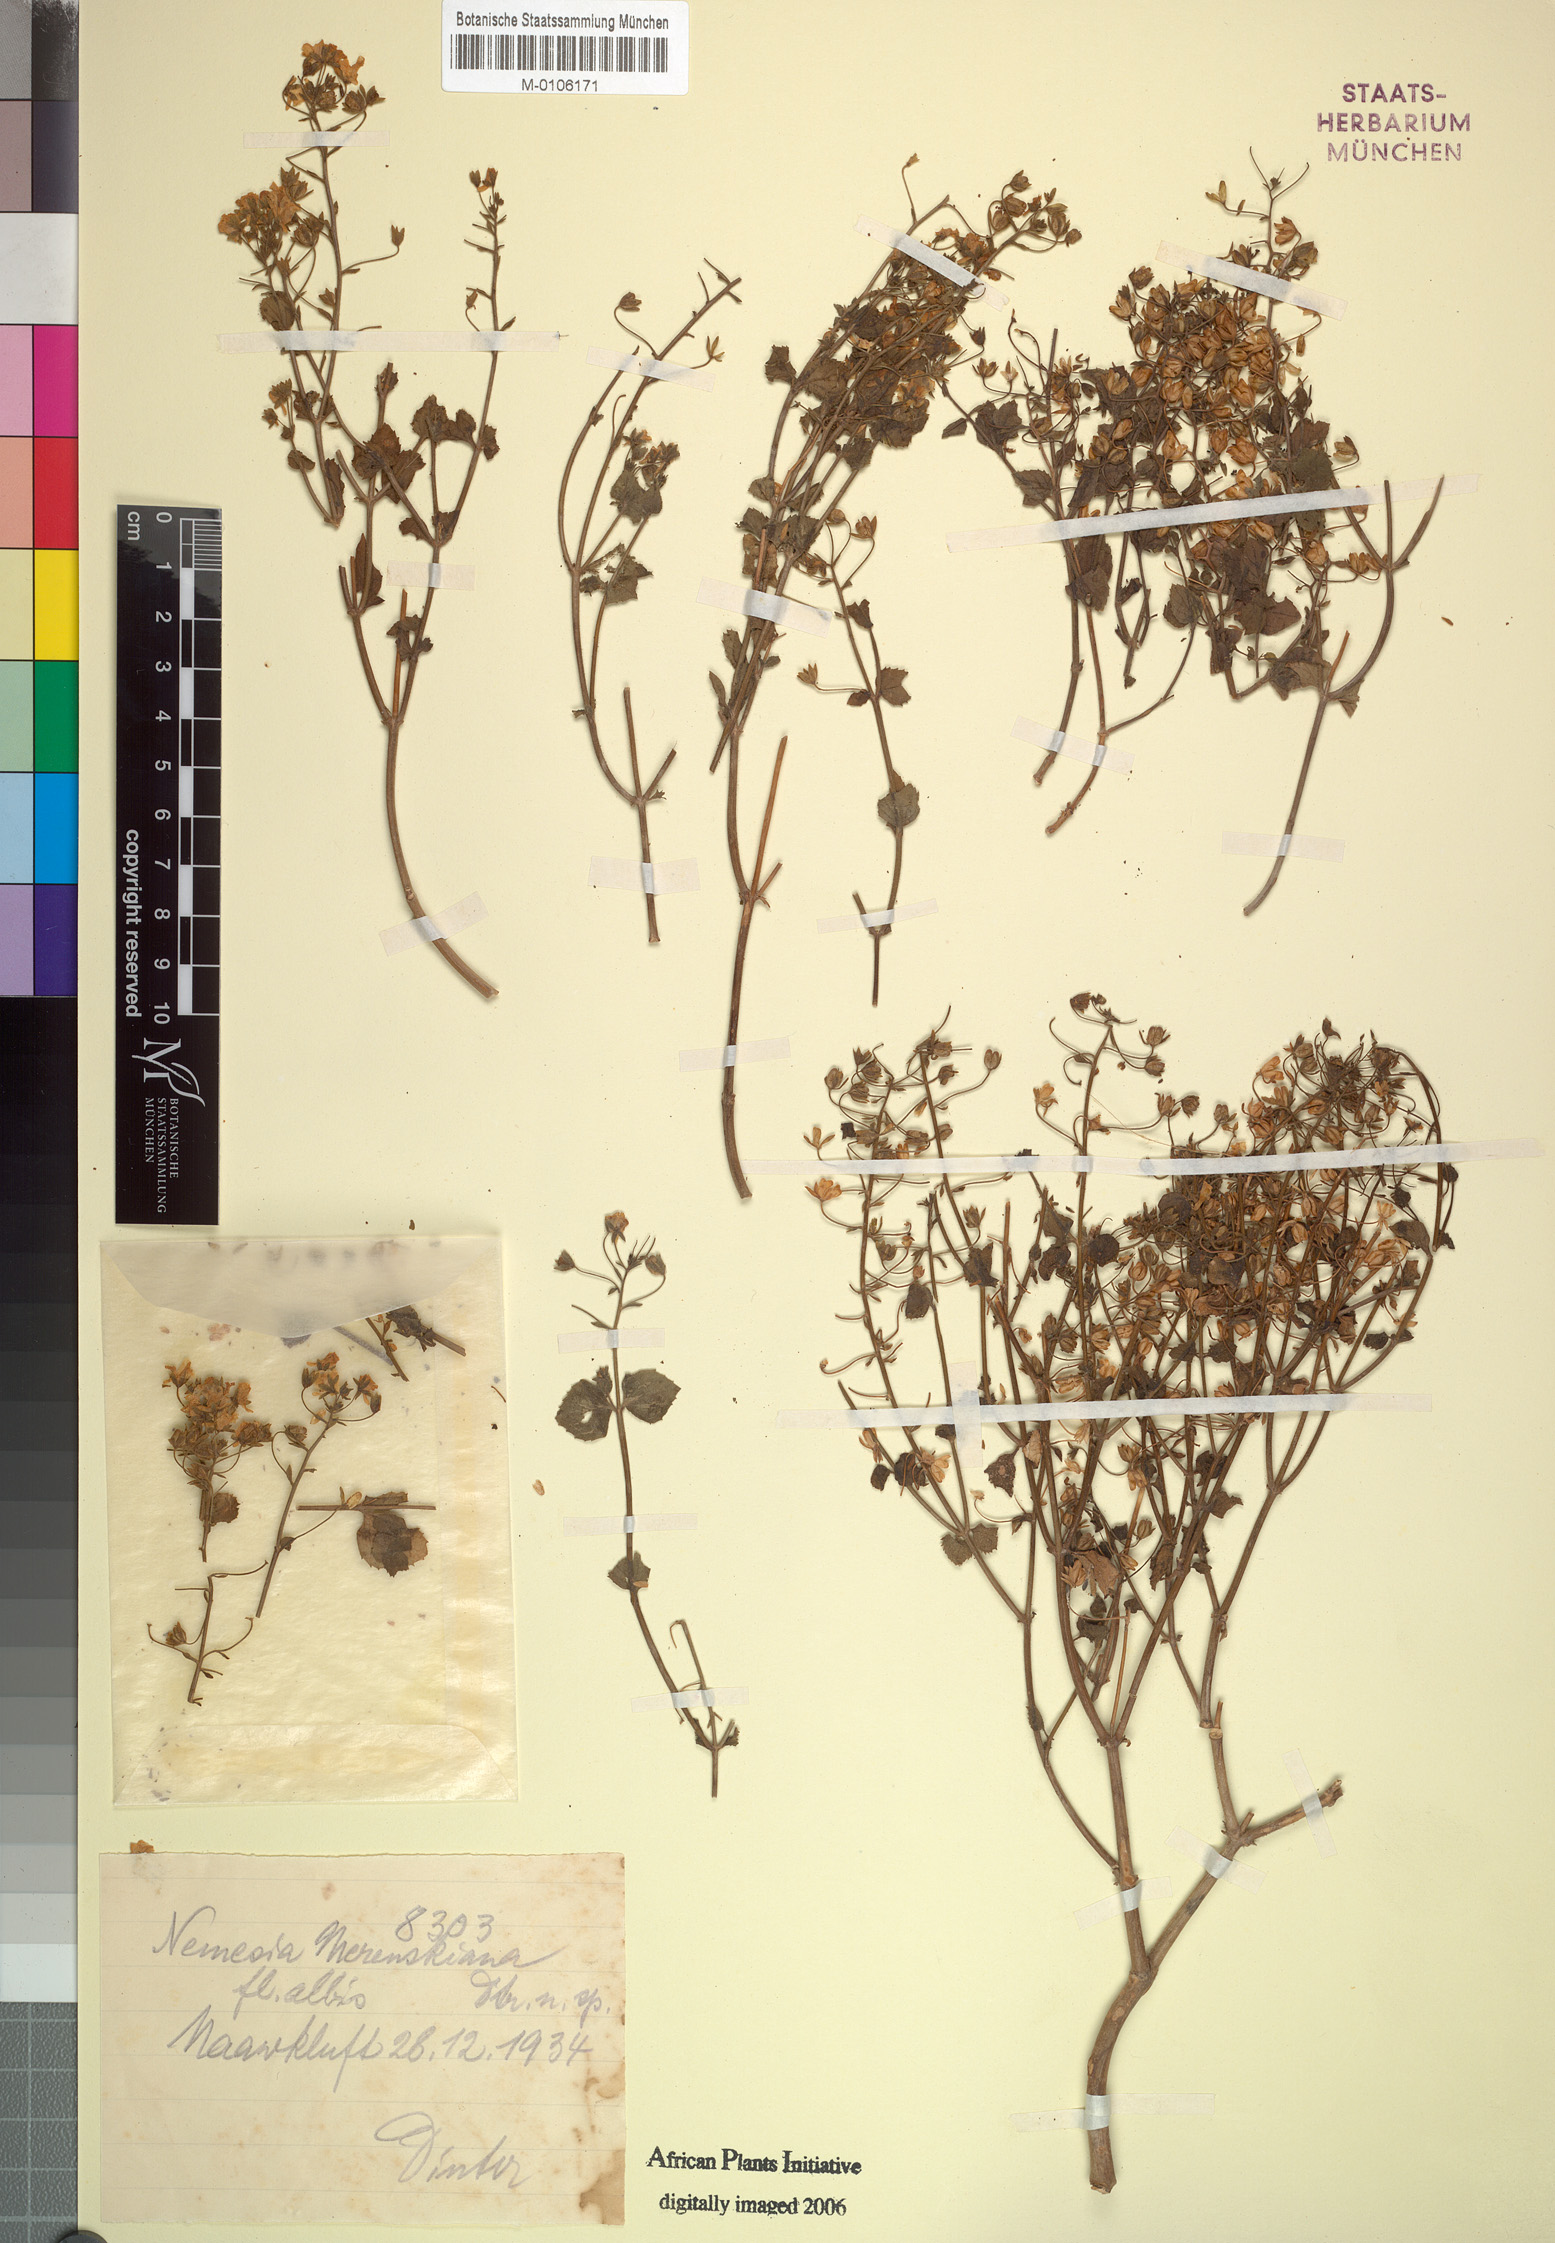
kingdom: Plantae
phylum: Tracheophyta
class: Magnoliopsida
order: Lamiales
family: Scrophulariaceae
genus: Nemesia
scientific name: Nemesia
